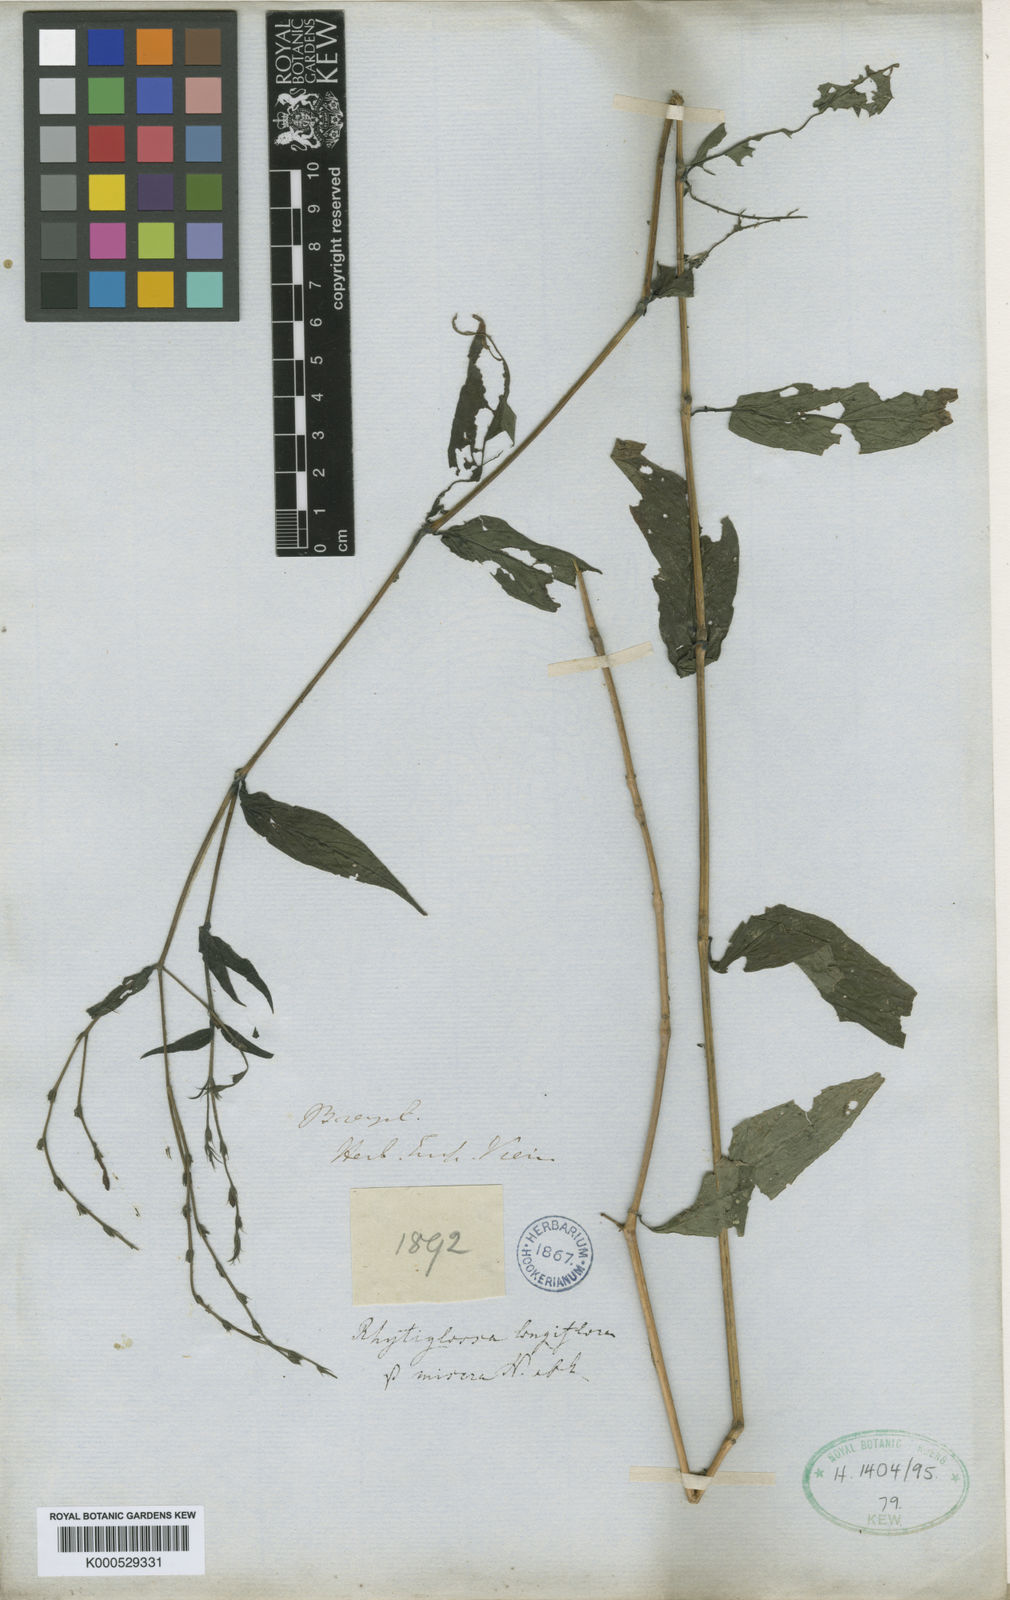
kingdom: Plantae
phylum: Tracheophyta
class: Magnoliopsida
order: Lamiales
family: Acanthaceae
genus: Justicia
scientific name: Justicia carnea
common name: Brazilian-plume
